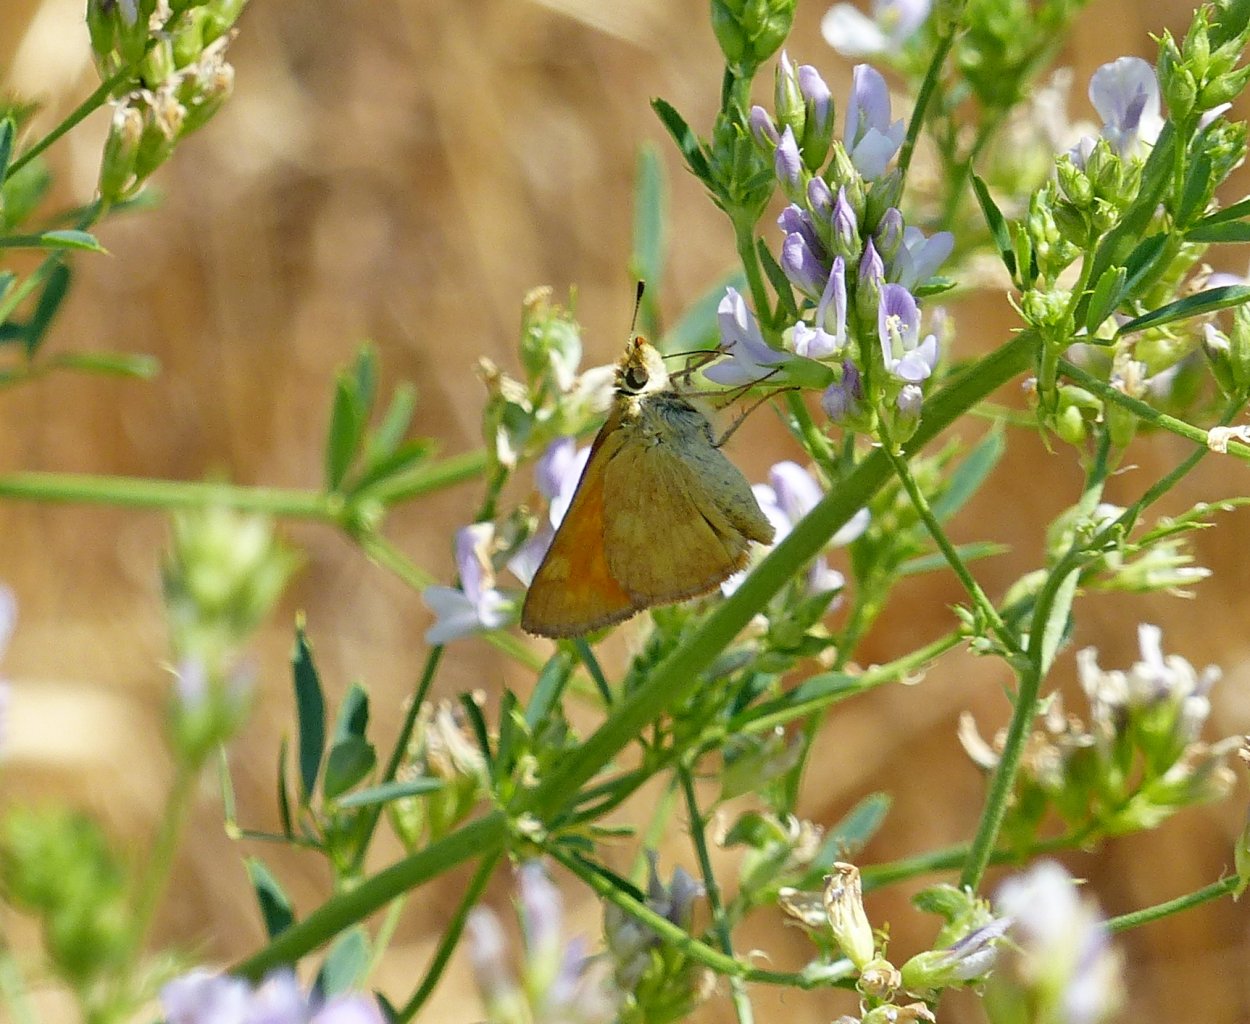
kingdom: Animalia
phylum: Arthropoda
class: Insecta
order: Lepidoptera
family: Hesperiidae
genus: Ochlodes
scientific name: Ochlodes sylvanoides
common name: Woodland Skipper
